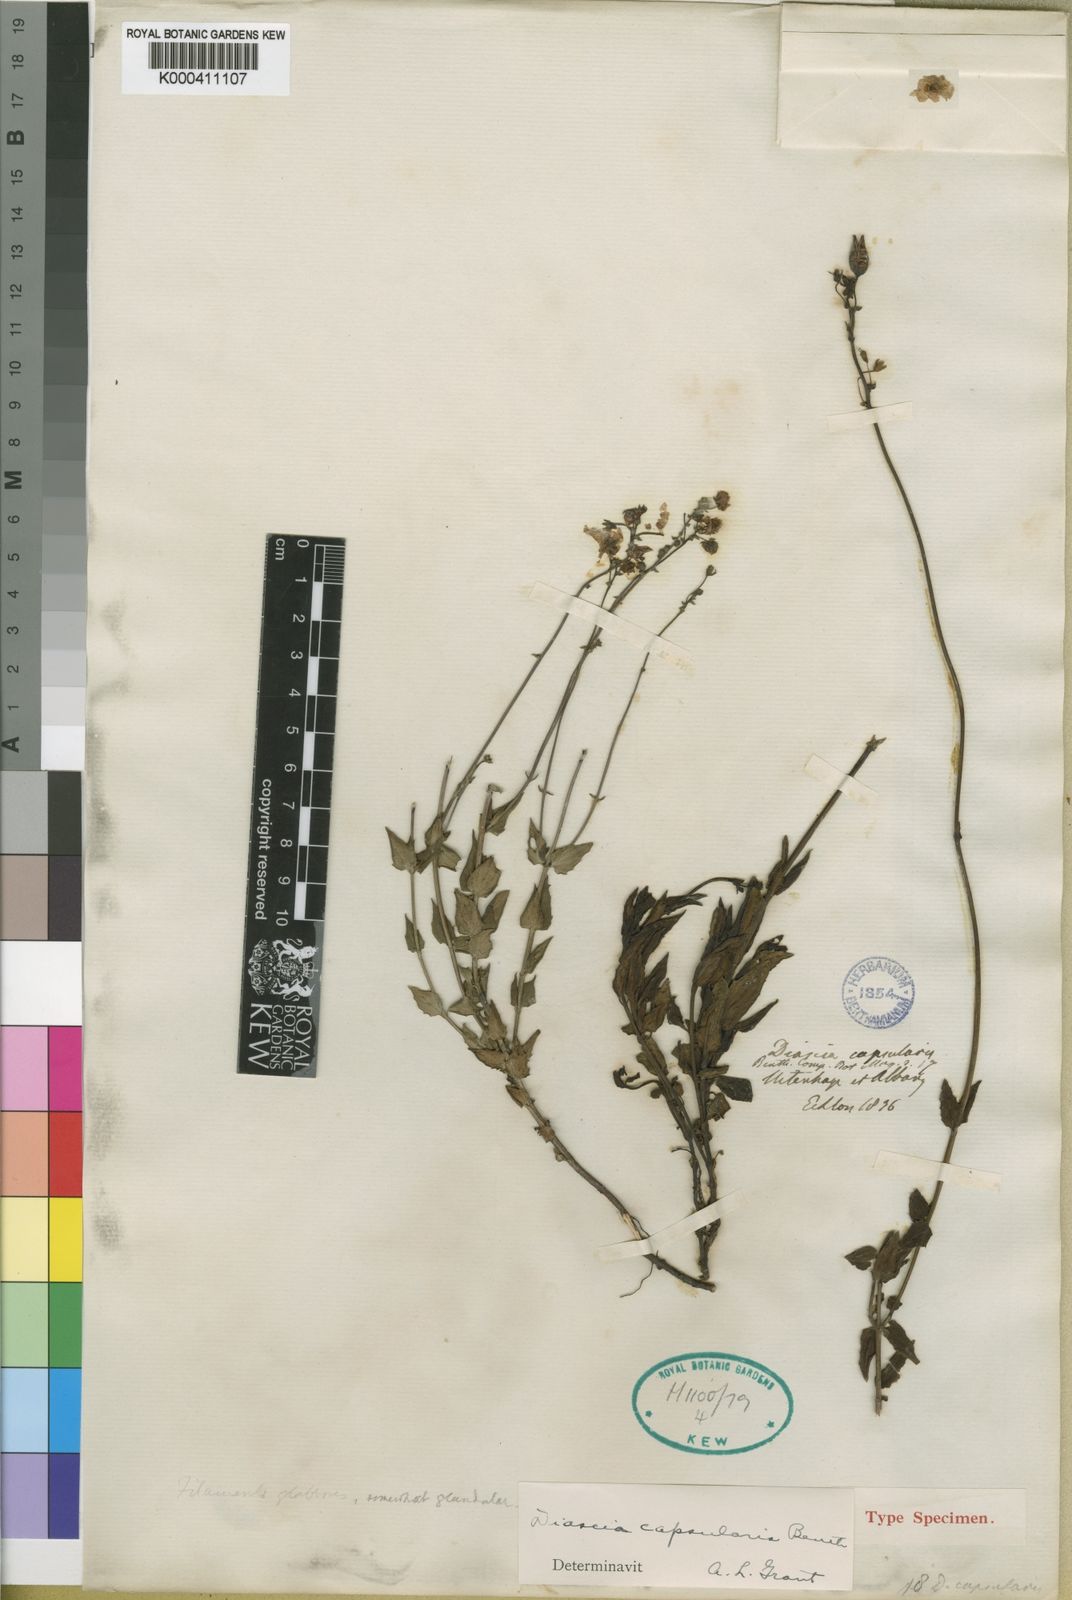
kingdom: Plantae
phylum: Tracheophyta
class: Magnoliopsida
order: Lamiales
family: Scrophulariaceae
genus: Diascia
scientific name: Diascia capsularis
